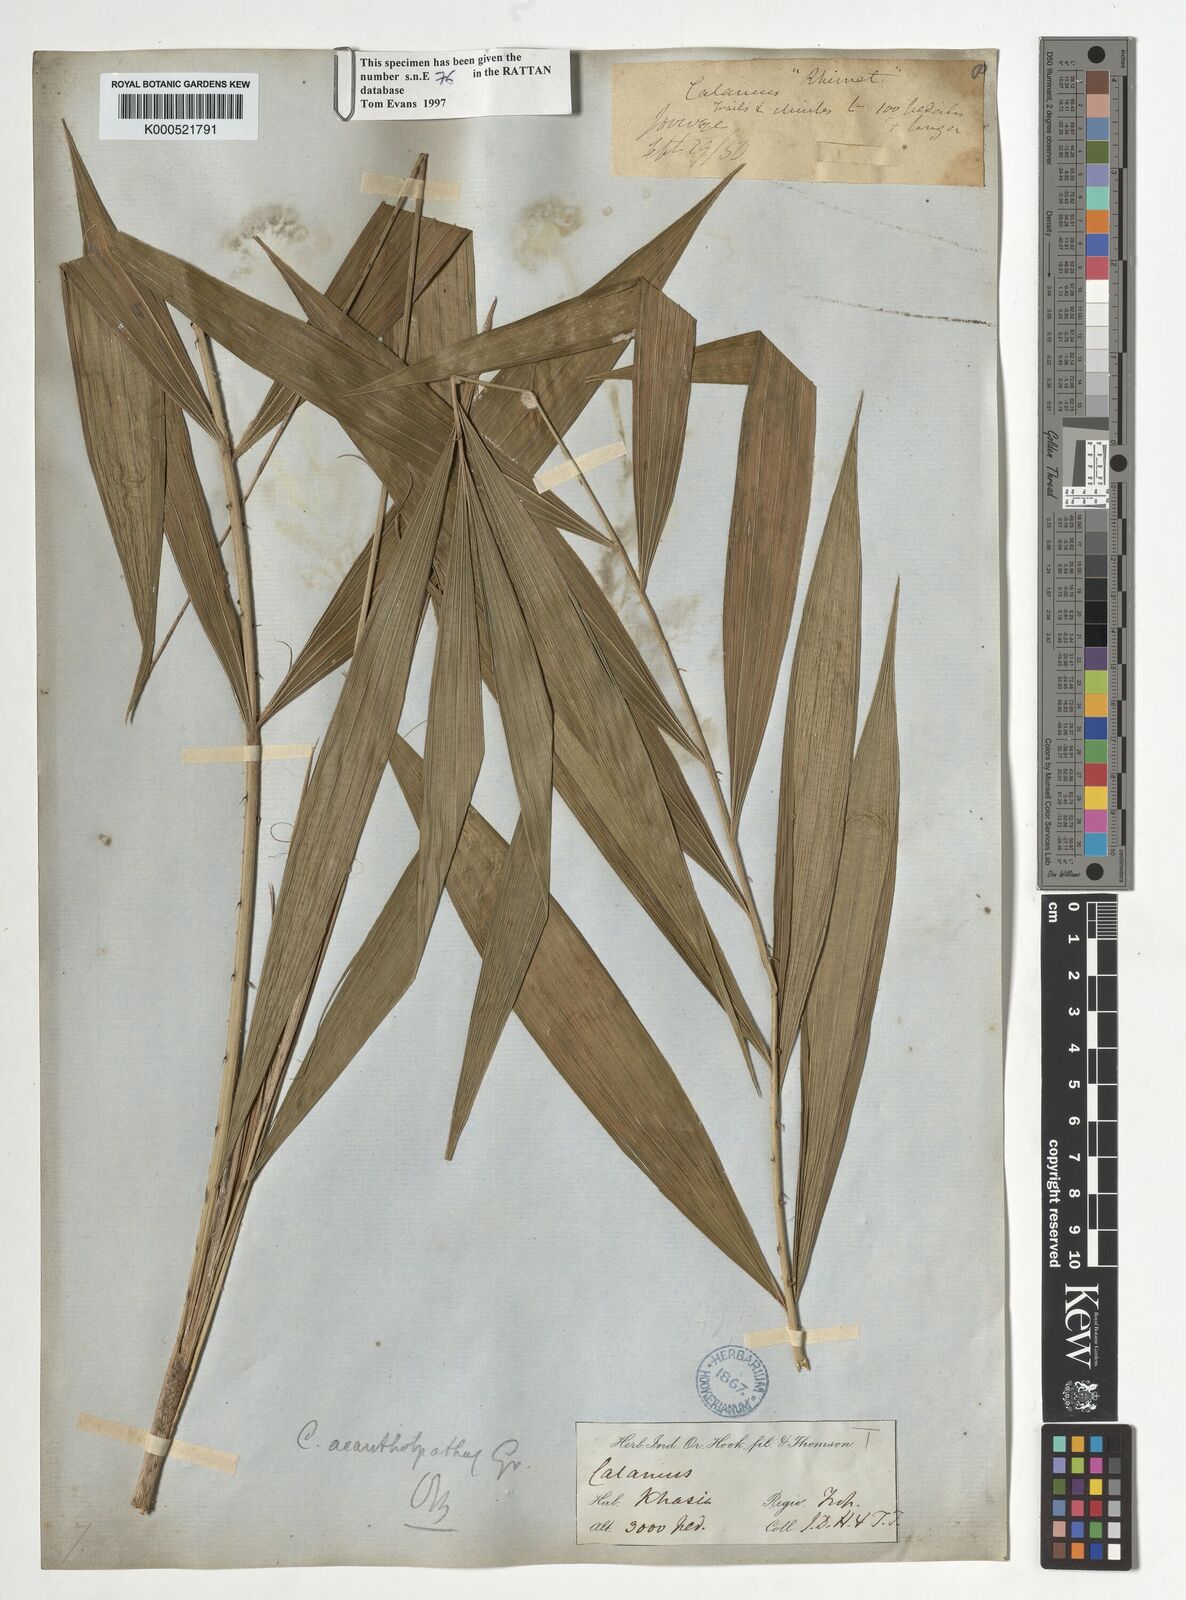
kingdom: Plantae
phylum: Tracheophyta
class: Liliopsida
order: Arecales
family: Arecaceae
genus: Calamus
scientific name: Calamus acanthospathus
